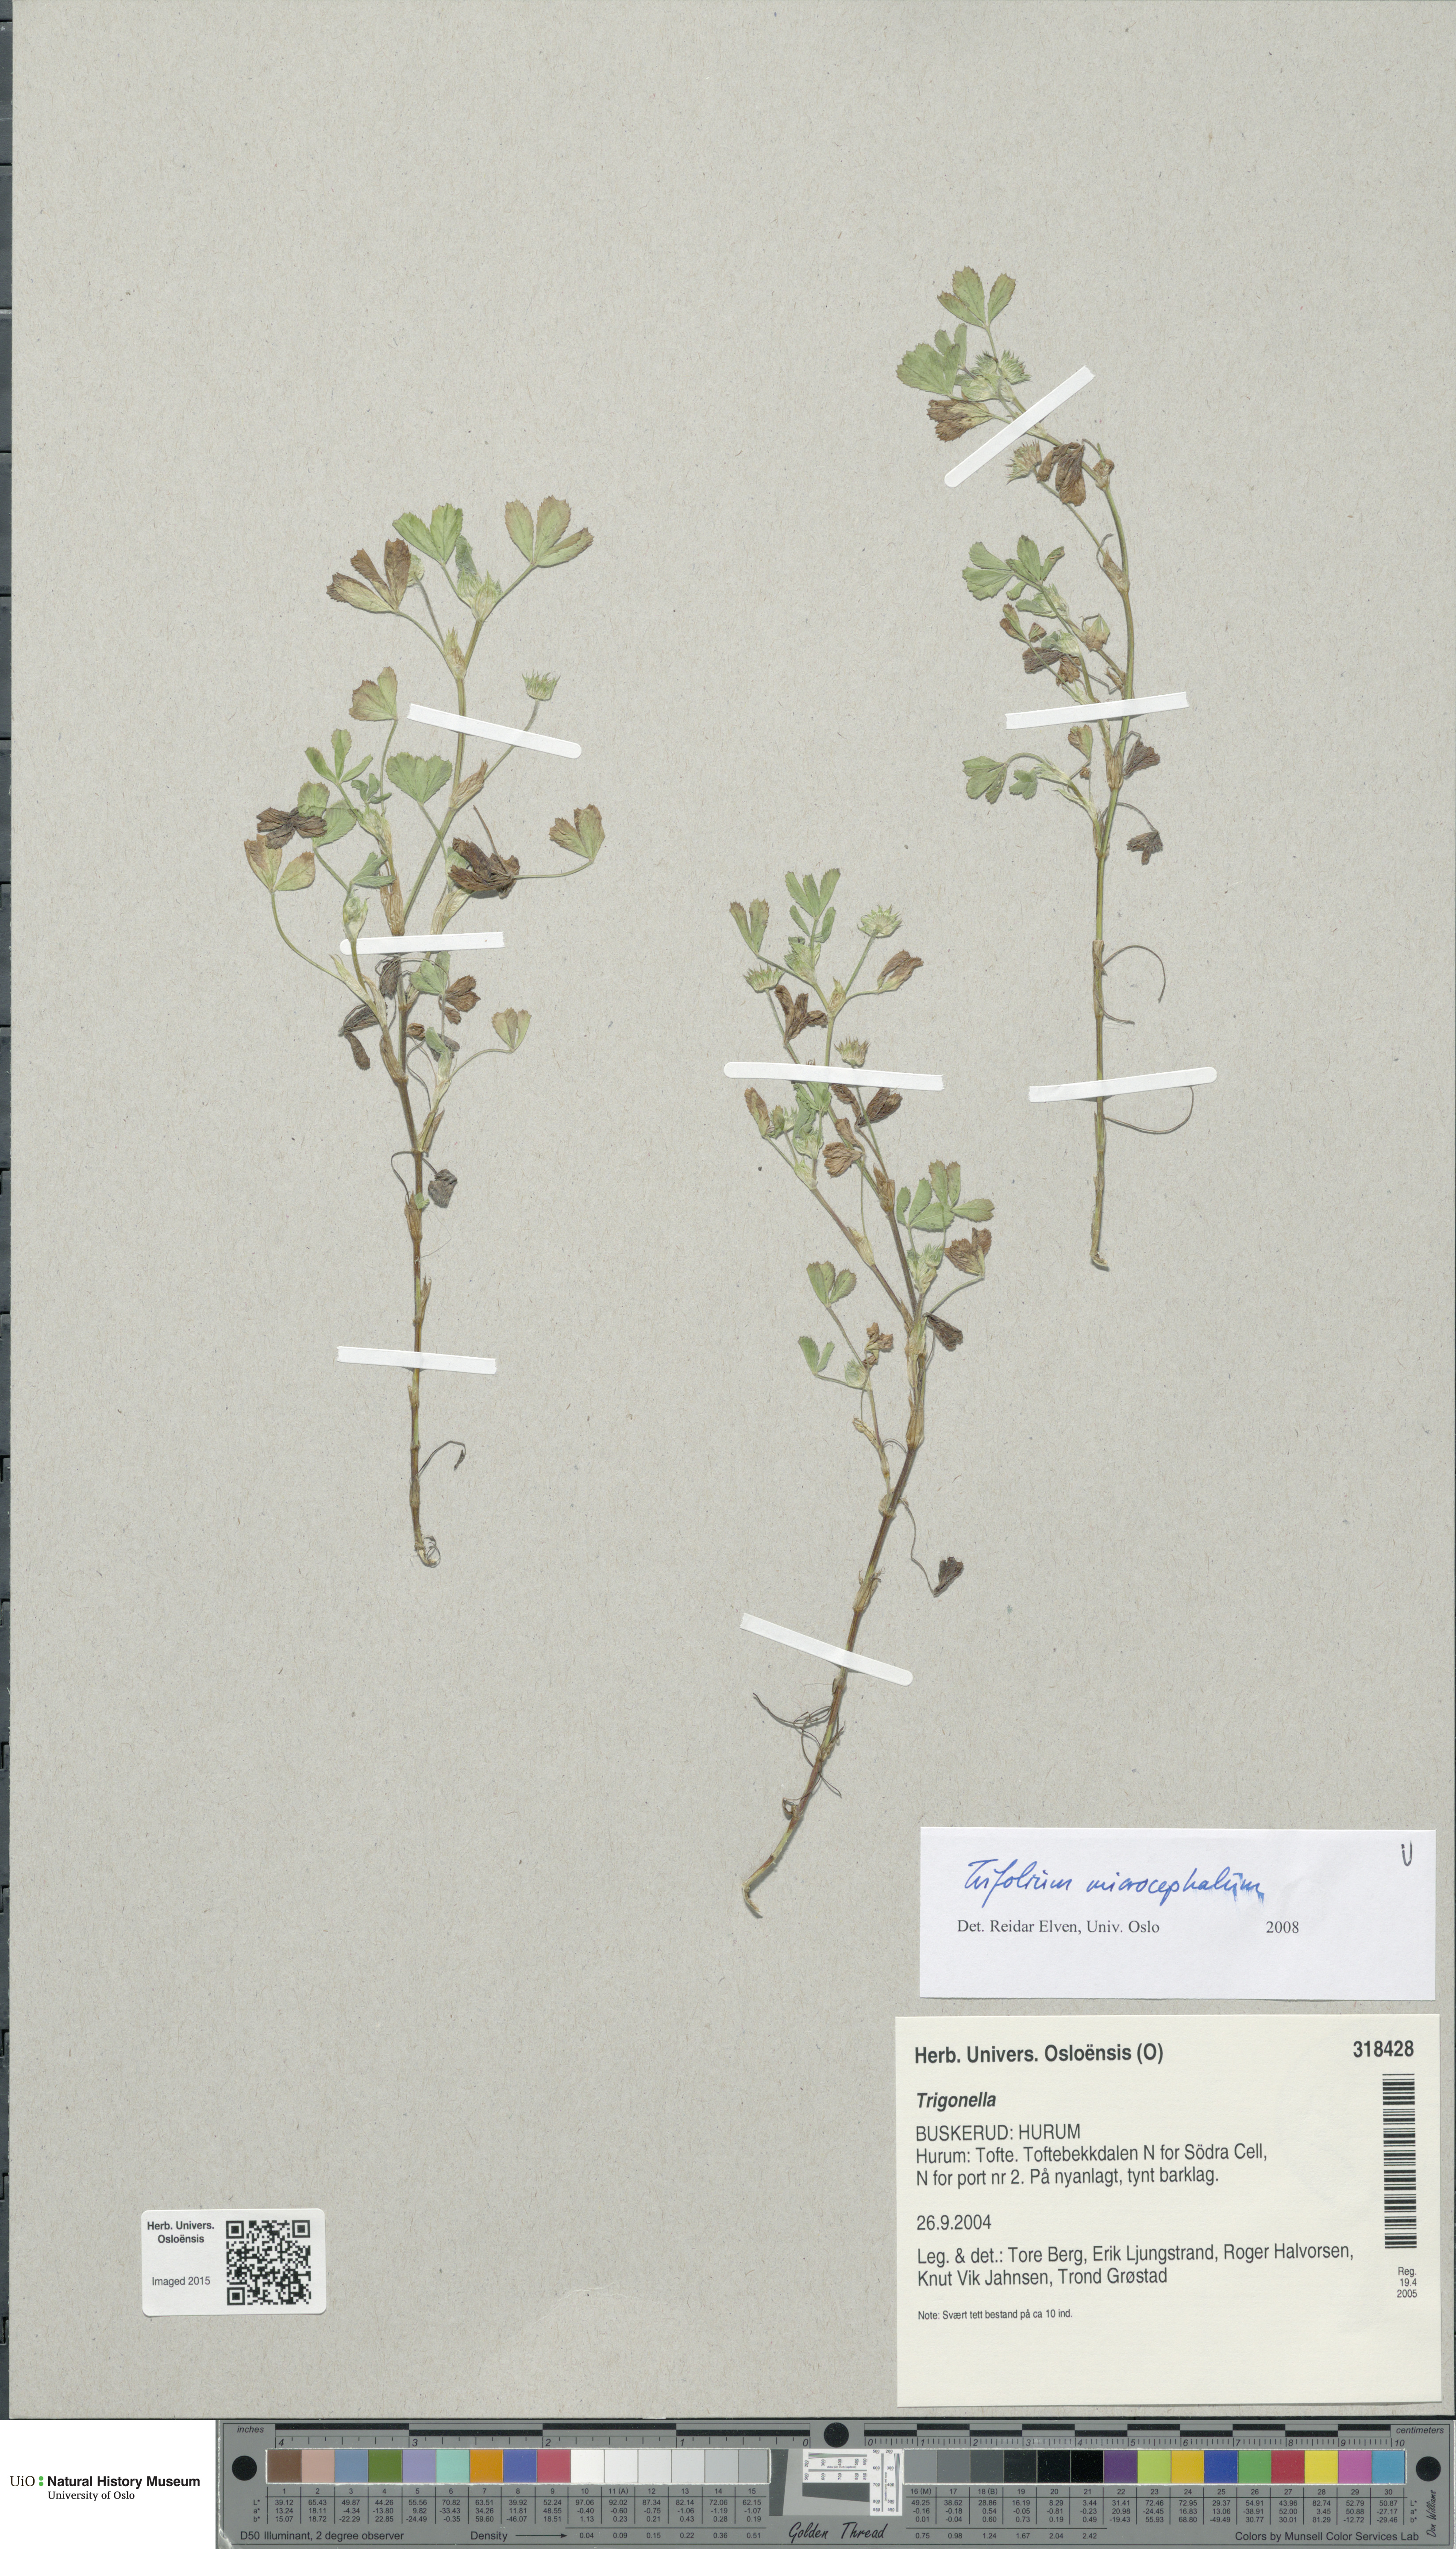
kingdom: Plantae
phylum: Tracheophyta
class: Magnoliopsida
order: Fabales
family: Fabaceae
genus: Trifolium
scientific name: Trifolium microcephalum
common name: Maiden clover
